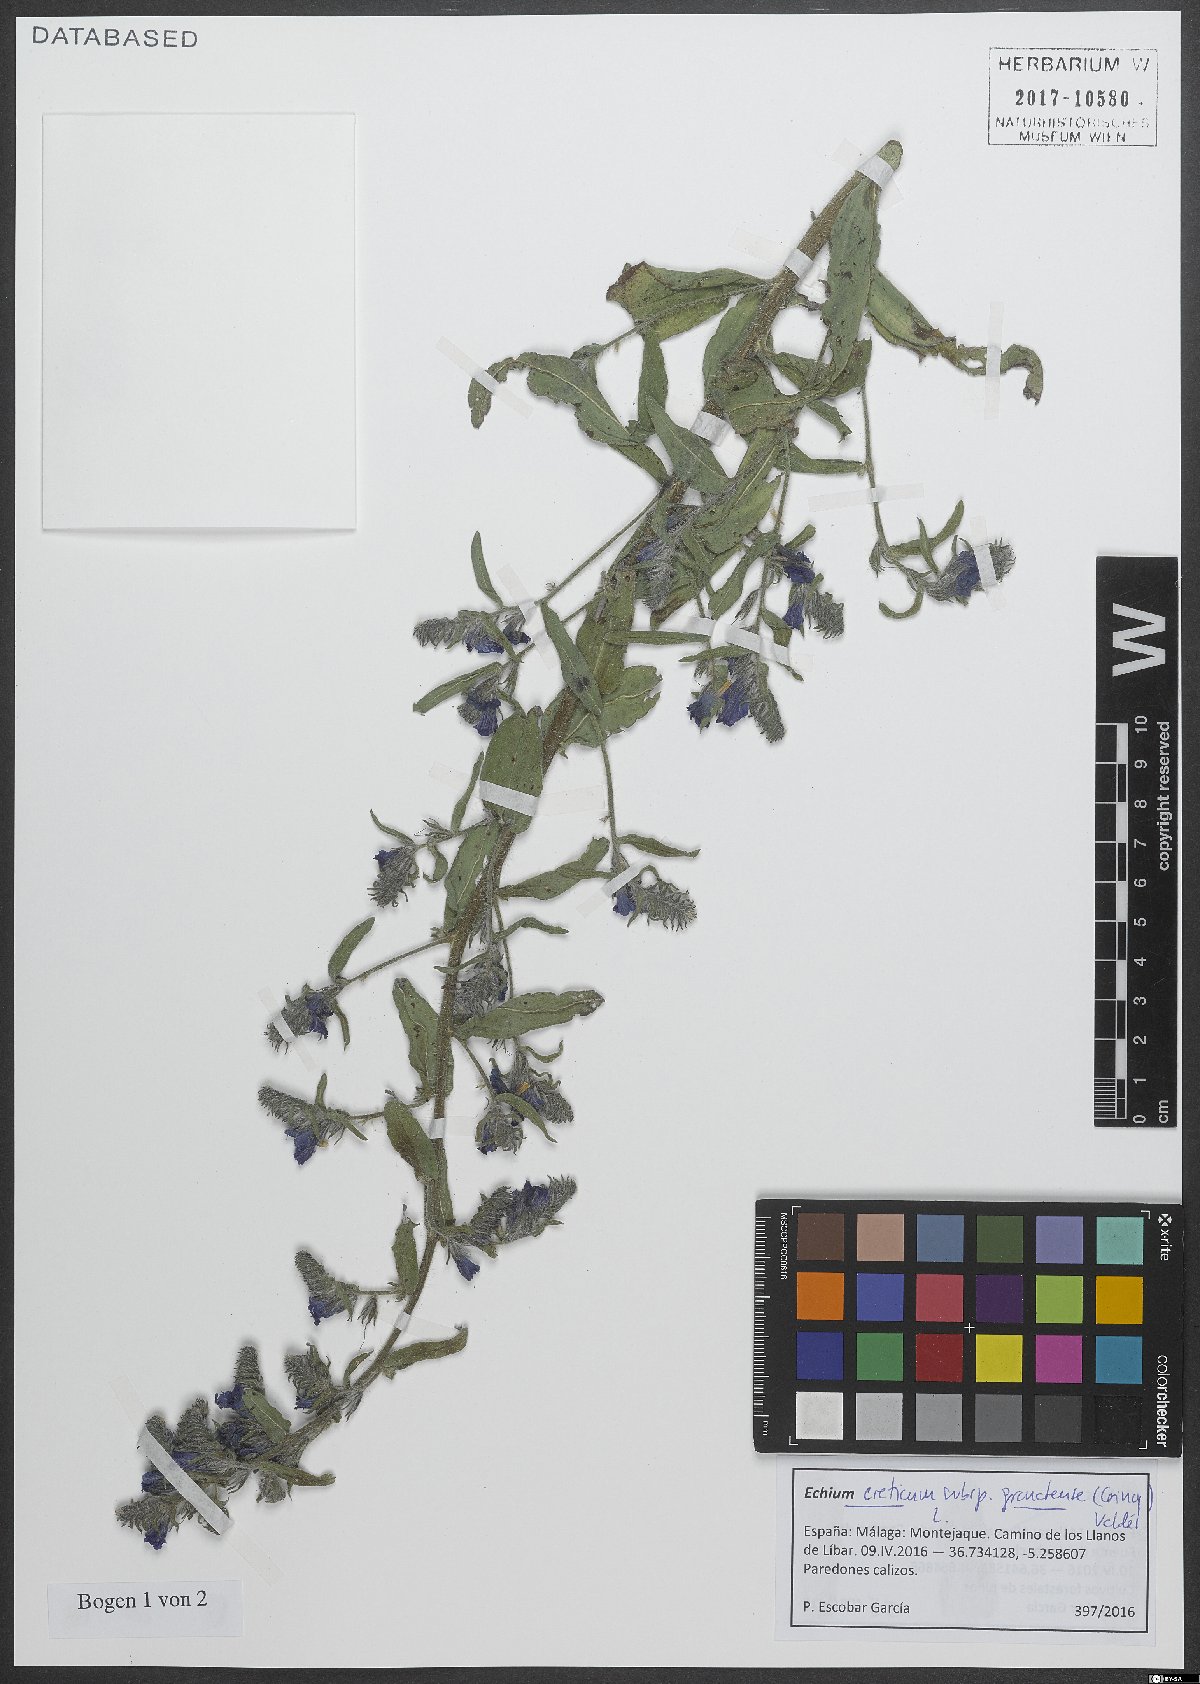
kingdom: Plantae
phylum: Tracheophyta
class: Magnoliopsida
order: Boraginales
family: Boraginaceae
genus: Echium
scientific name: Echium creticum
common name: Cretan viper's bugloss
